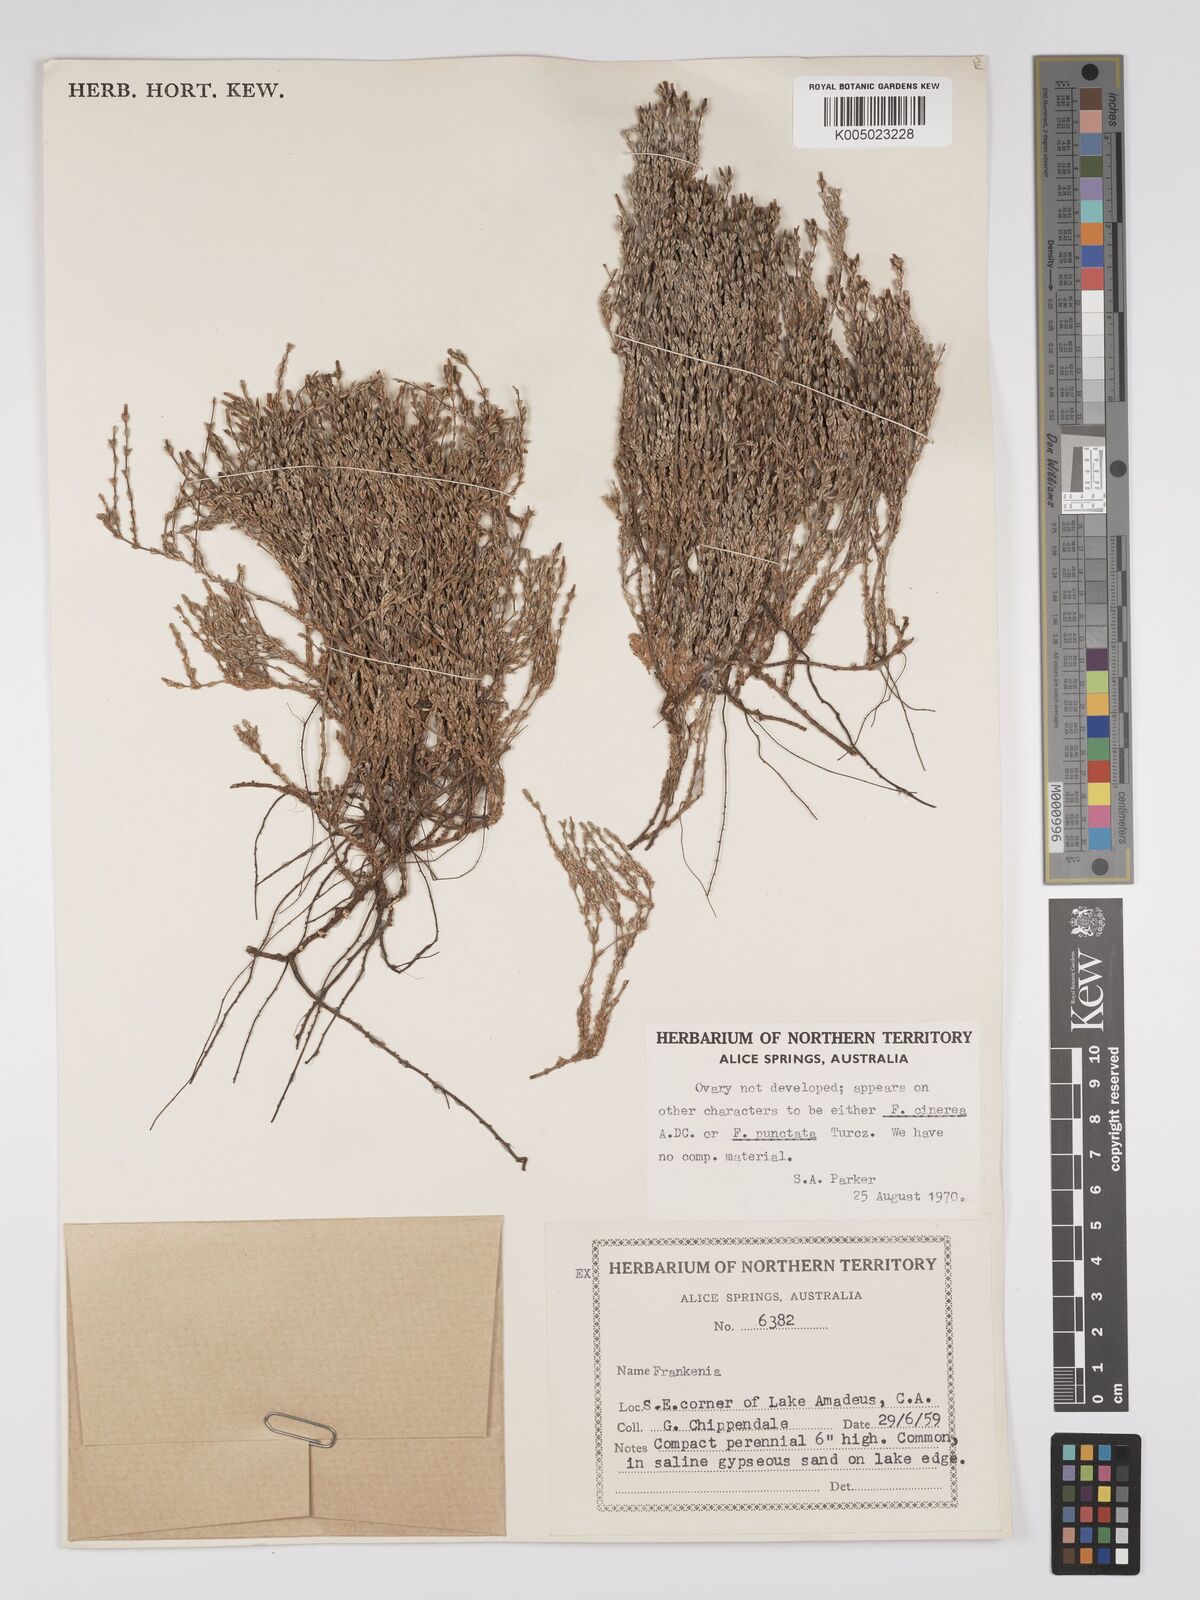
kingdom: Plantae
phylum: Tracheophyta
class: Magnoliopsida
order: Caryophyllales
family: Frankeniaceae
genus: Frankenia
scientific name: Frankenia
